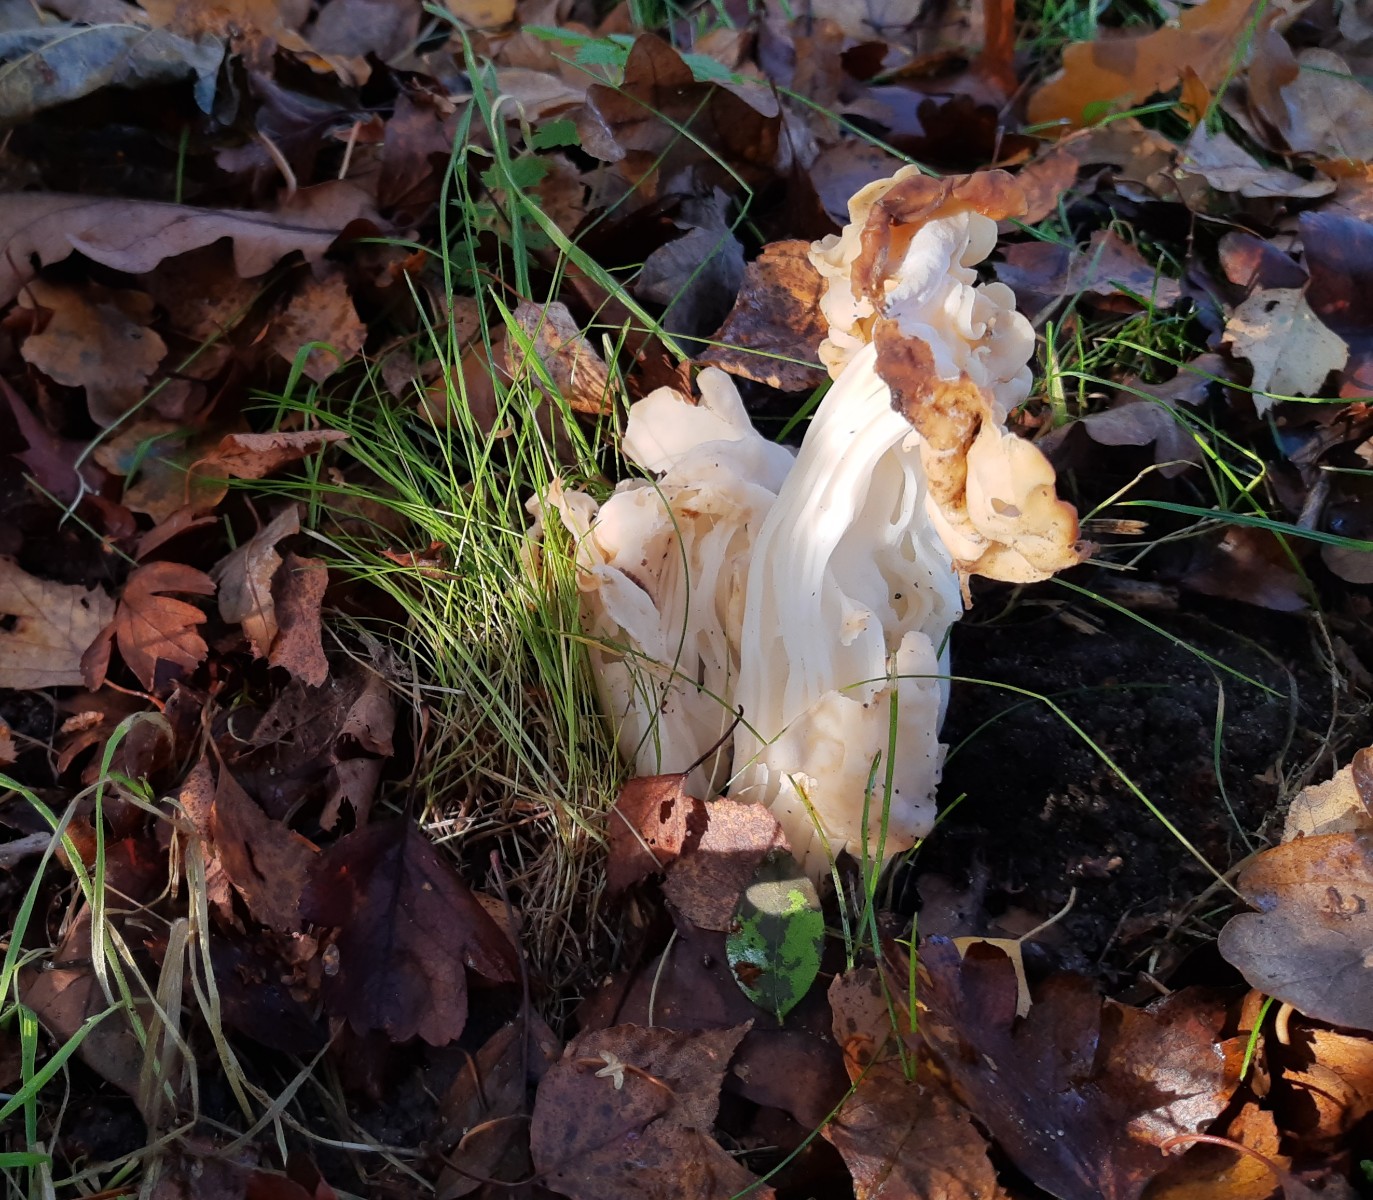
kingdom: Fungi
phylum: Ascomycota
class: Pezizomycetes
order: Pezizales
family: Helvellaceae
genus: Helvella
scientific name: Helvella crispa
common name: kruset foldhat
